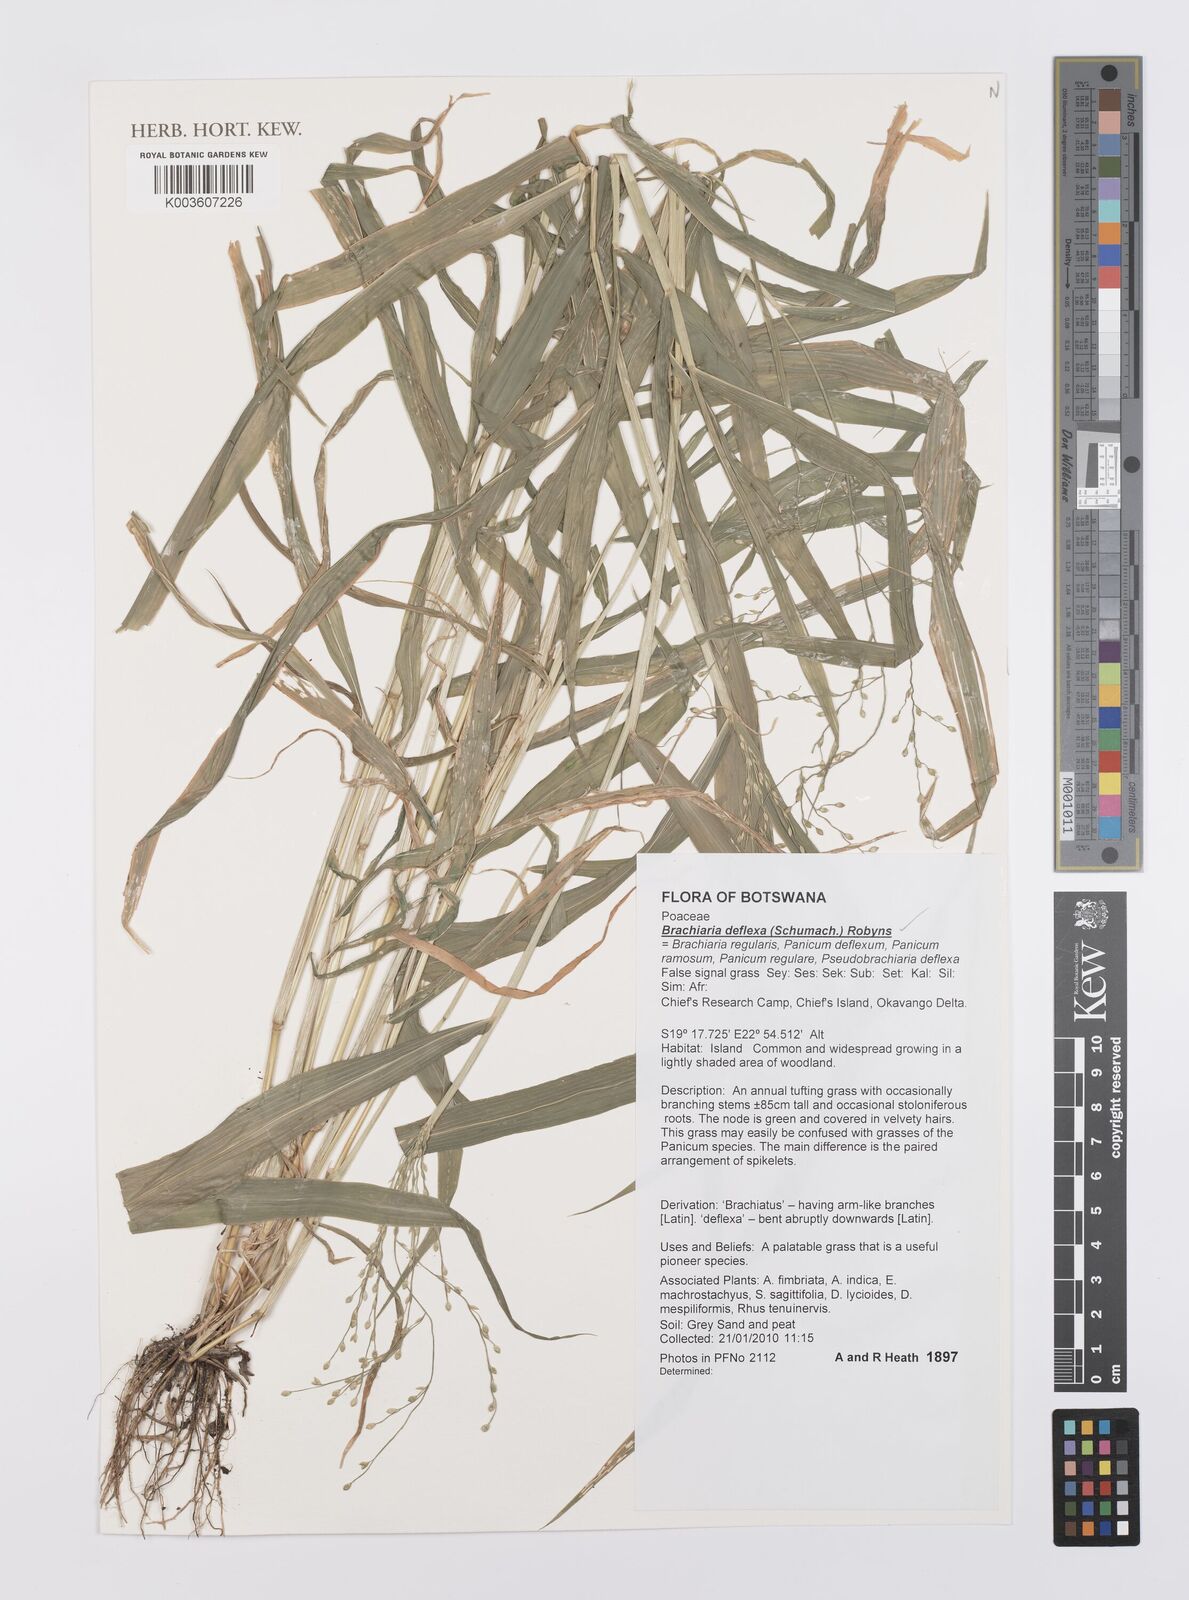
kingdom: Plantae
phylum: Tracheophyta
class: Liliopsida
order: Poales
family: Poaceae
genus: Urochloa
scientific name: Urochloa deflexa
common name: Guinea millet
